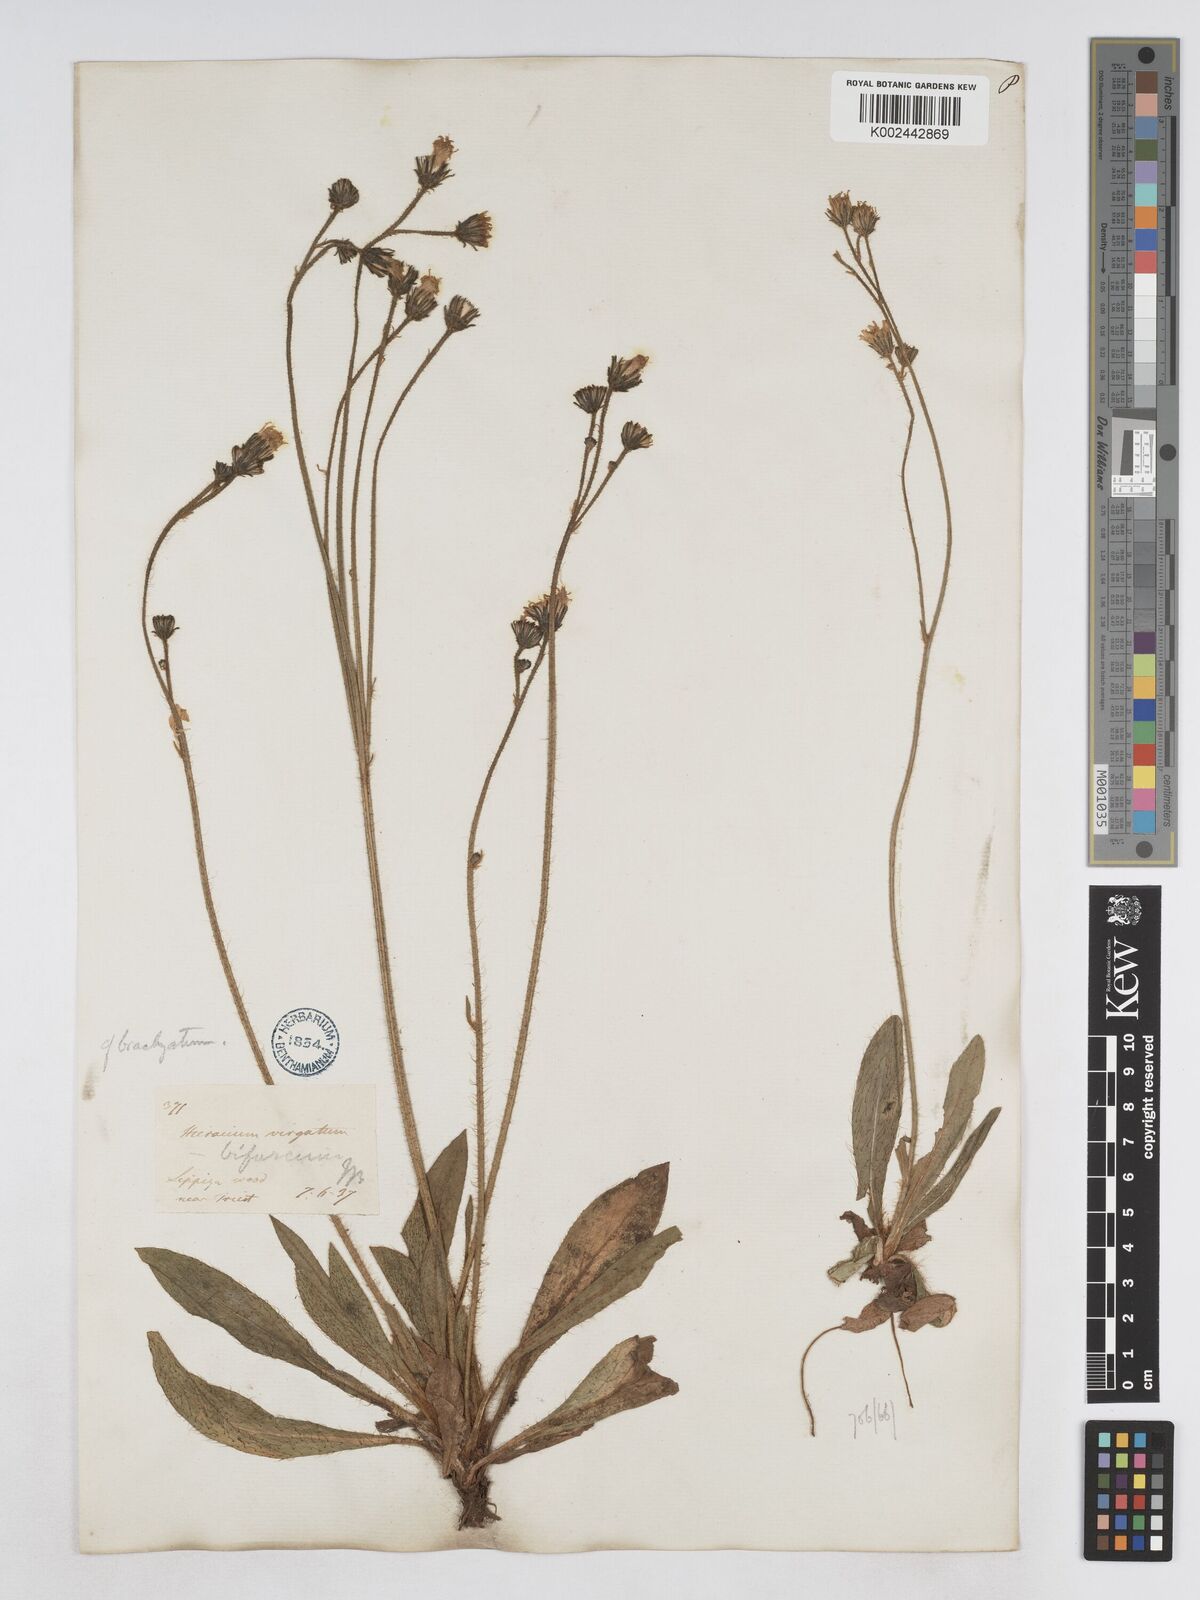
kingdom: Plantae
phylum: Tracheophyta
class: Magnoliopsida
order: Asterales
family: Asteraceae
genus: Pilosella
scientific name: Pilosella bifurca
